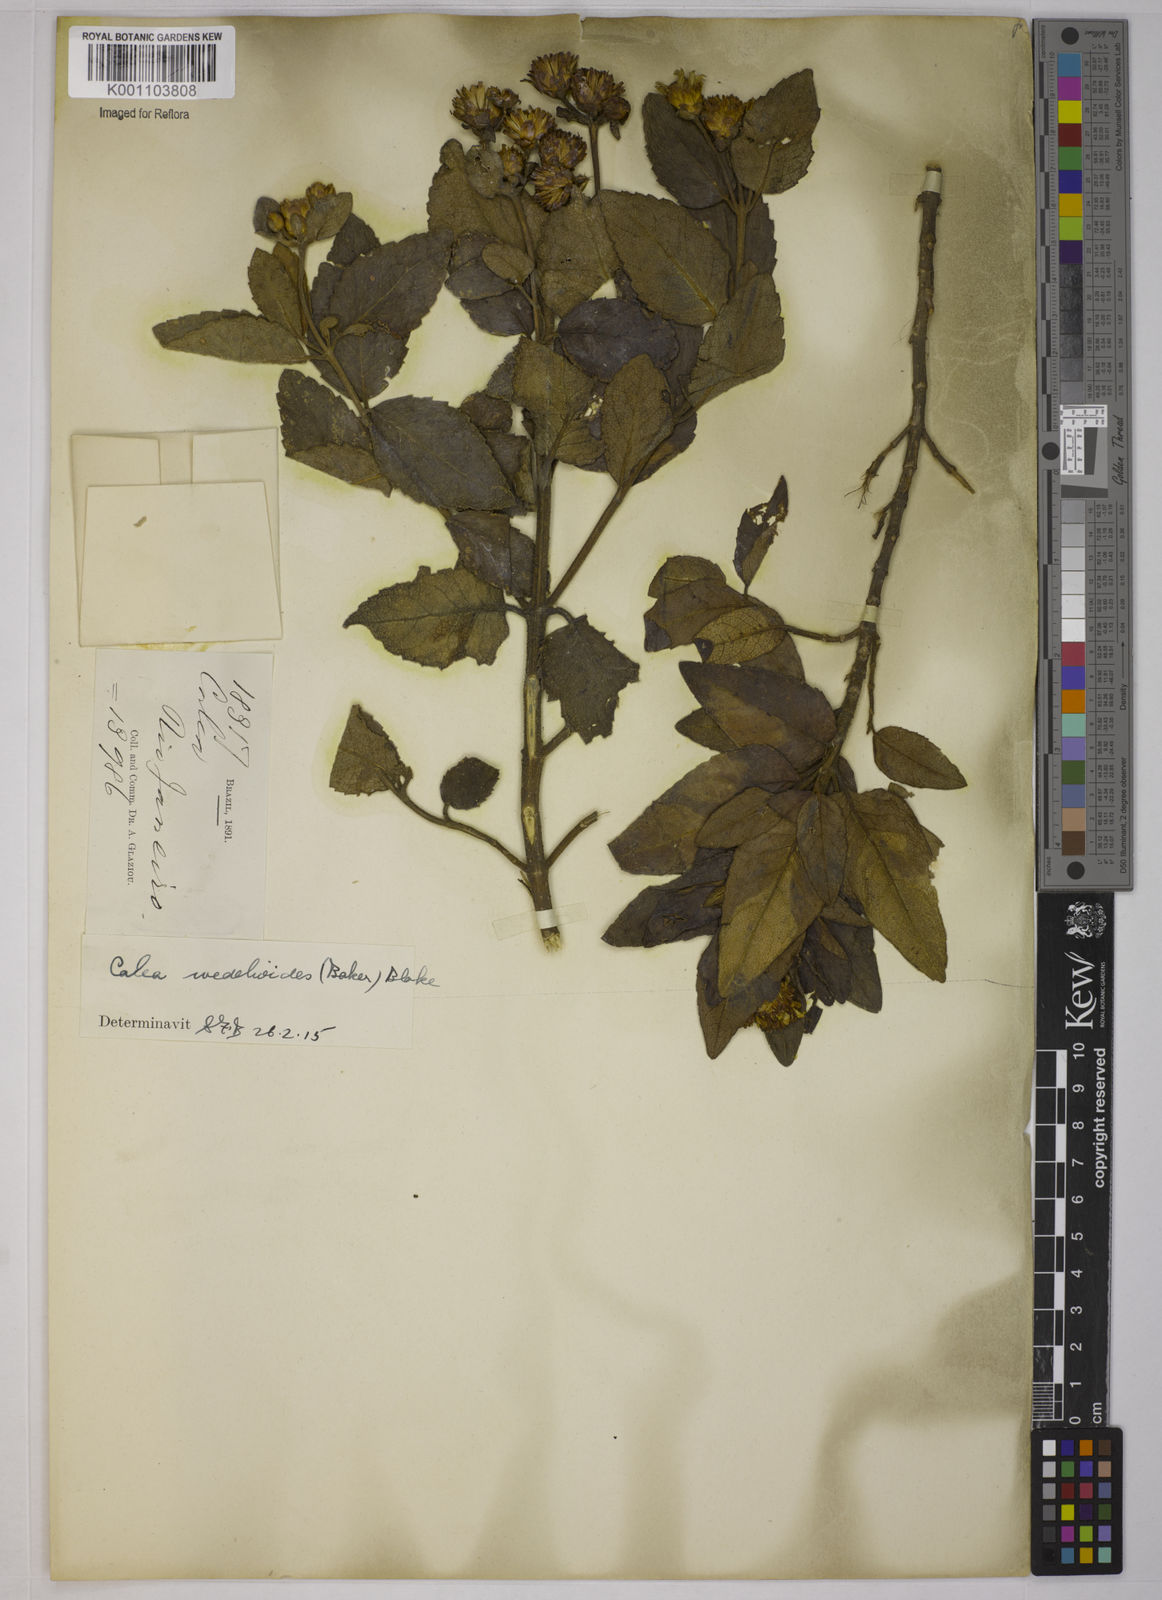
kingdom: Plantae
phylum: Tracheophyta
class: Magnoliopsida
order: Asterales
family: Asteraceae
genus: Calea
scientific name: Calea wedelioides
